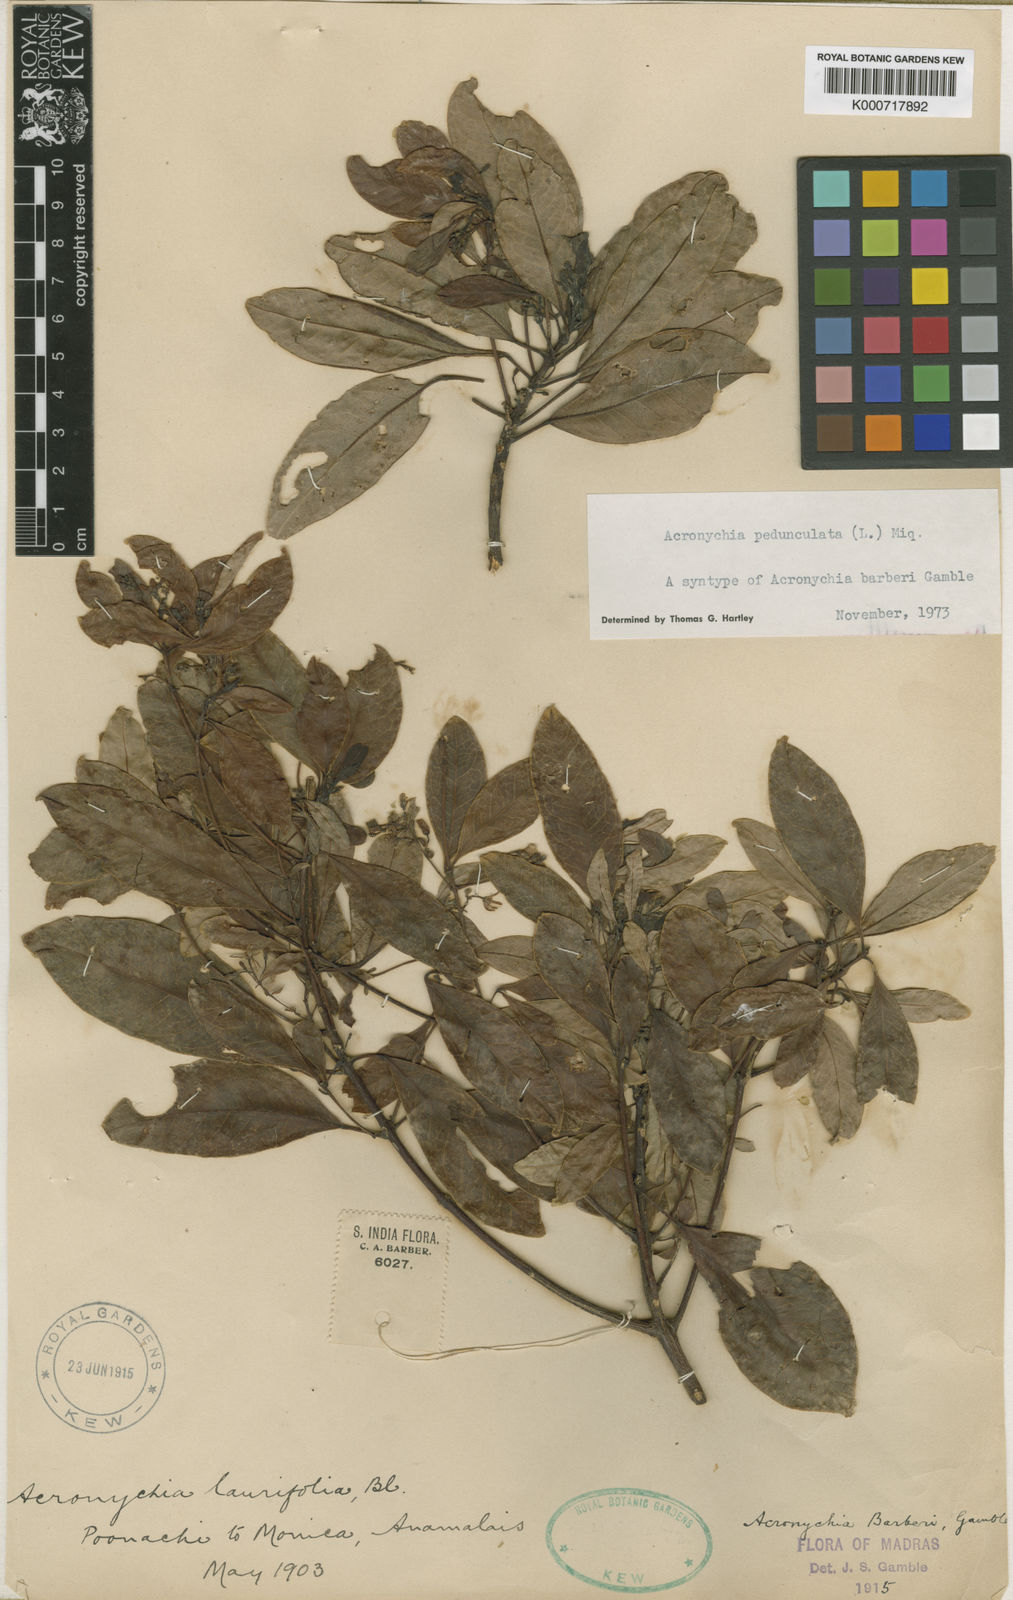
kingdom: Plantae
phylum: Tracheophyta
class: Magnoliopsida
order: Sapindales
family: Rutaceae
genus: Acronychia
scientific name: Acronychia pedunculata
